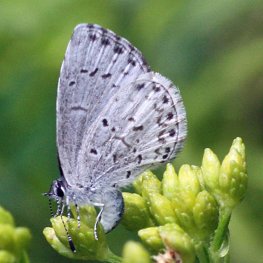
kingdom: Animalia
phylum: Arthropoda
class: Insecta
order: Lepidoptera
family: Lycaenidae
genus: Cyaniris
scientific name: Cyaniris neglecta
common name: Summer Azure
